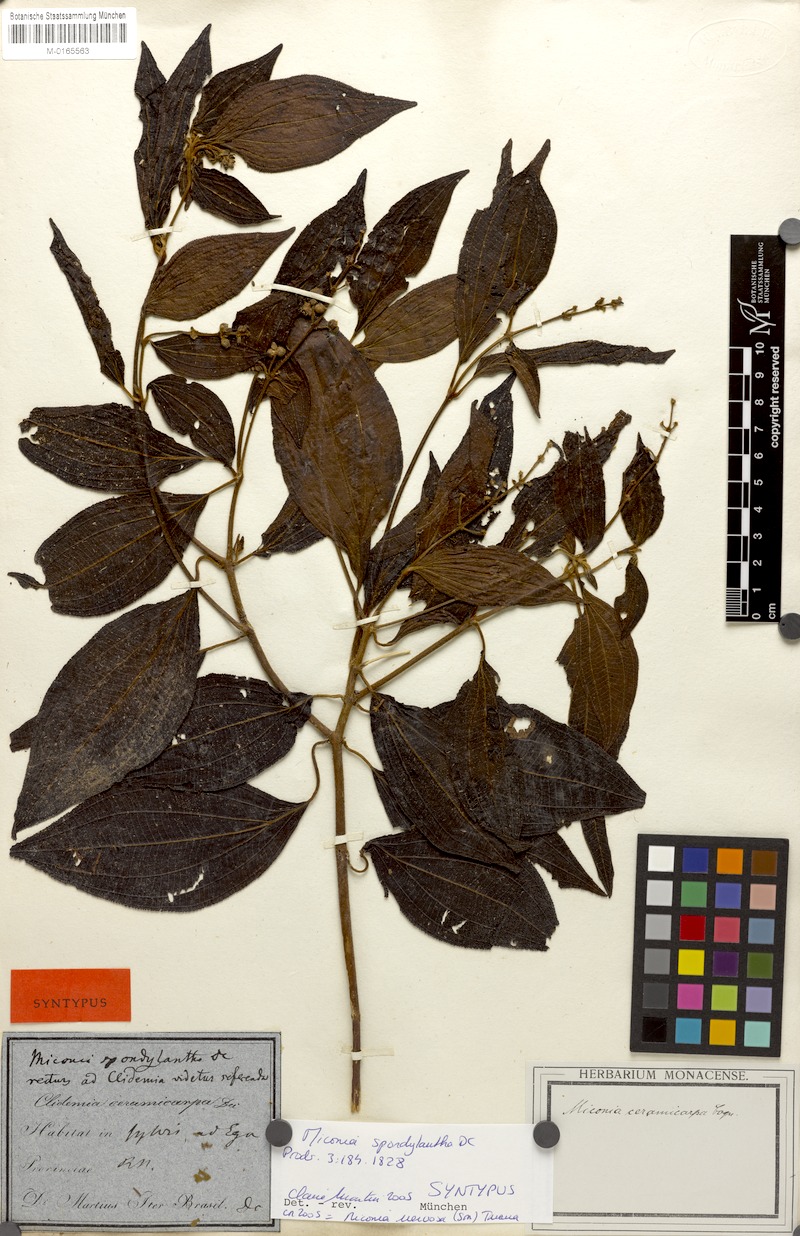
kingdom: Plantae
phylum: Tracheophyta
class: Magnoliopsida
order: Myrtales
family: Melastomataceae
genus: Miconia
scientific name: Miconia nervosa
